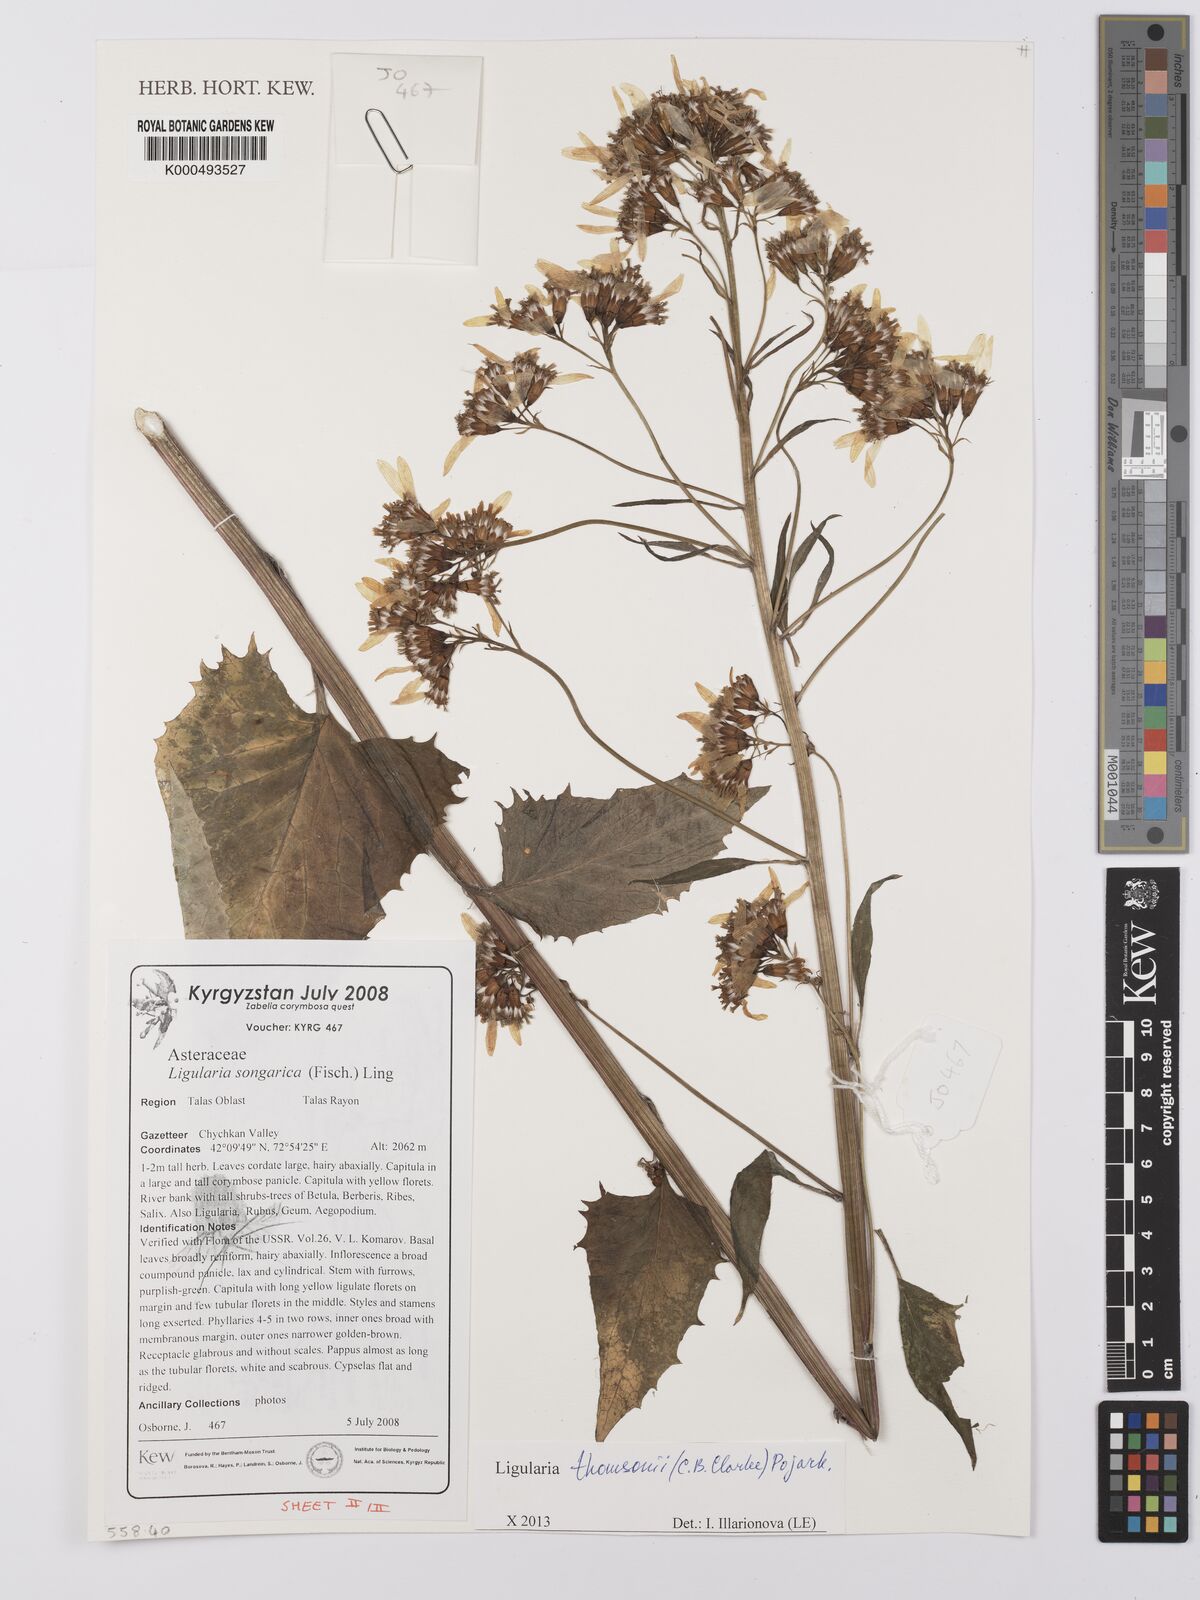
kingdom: Plantae
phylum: Tracheophyta
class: Magnoliopsida
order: Asterales
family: Asteraceae
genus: Vickifunkia
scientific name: Vickifunkia thomsonii
